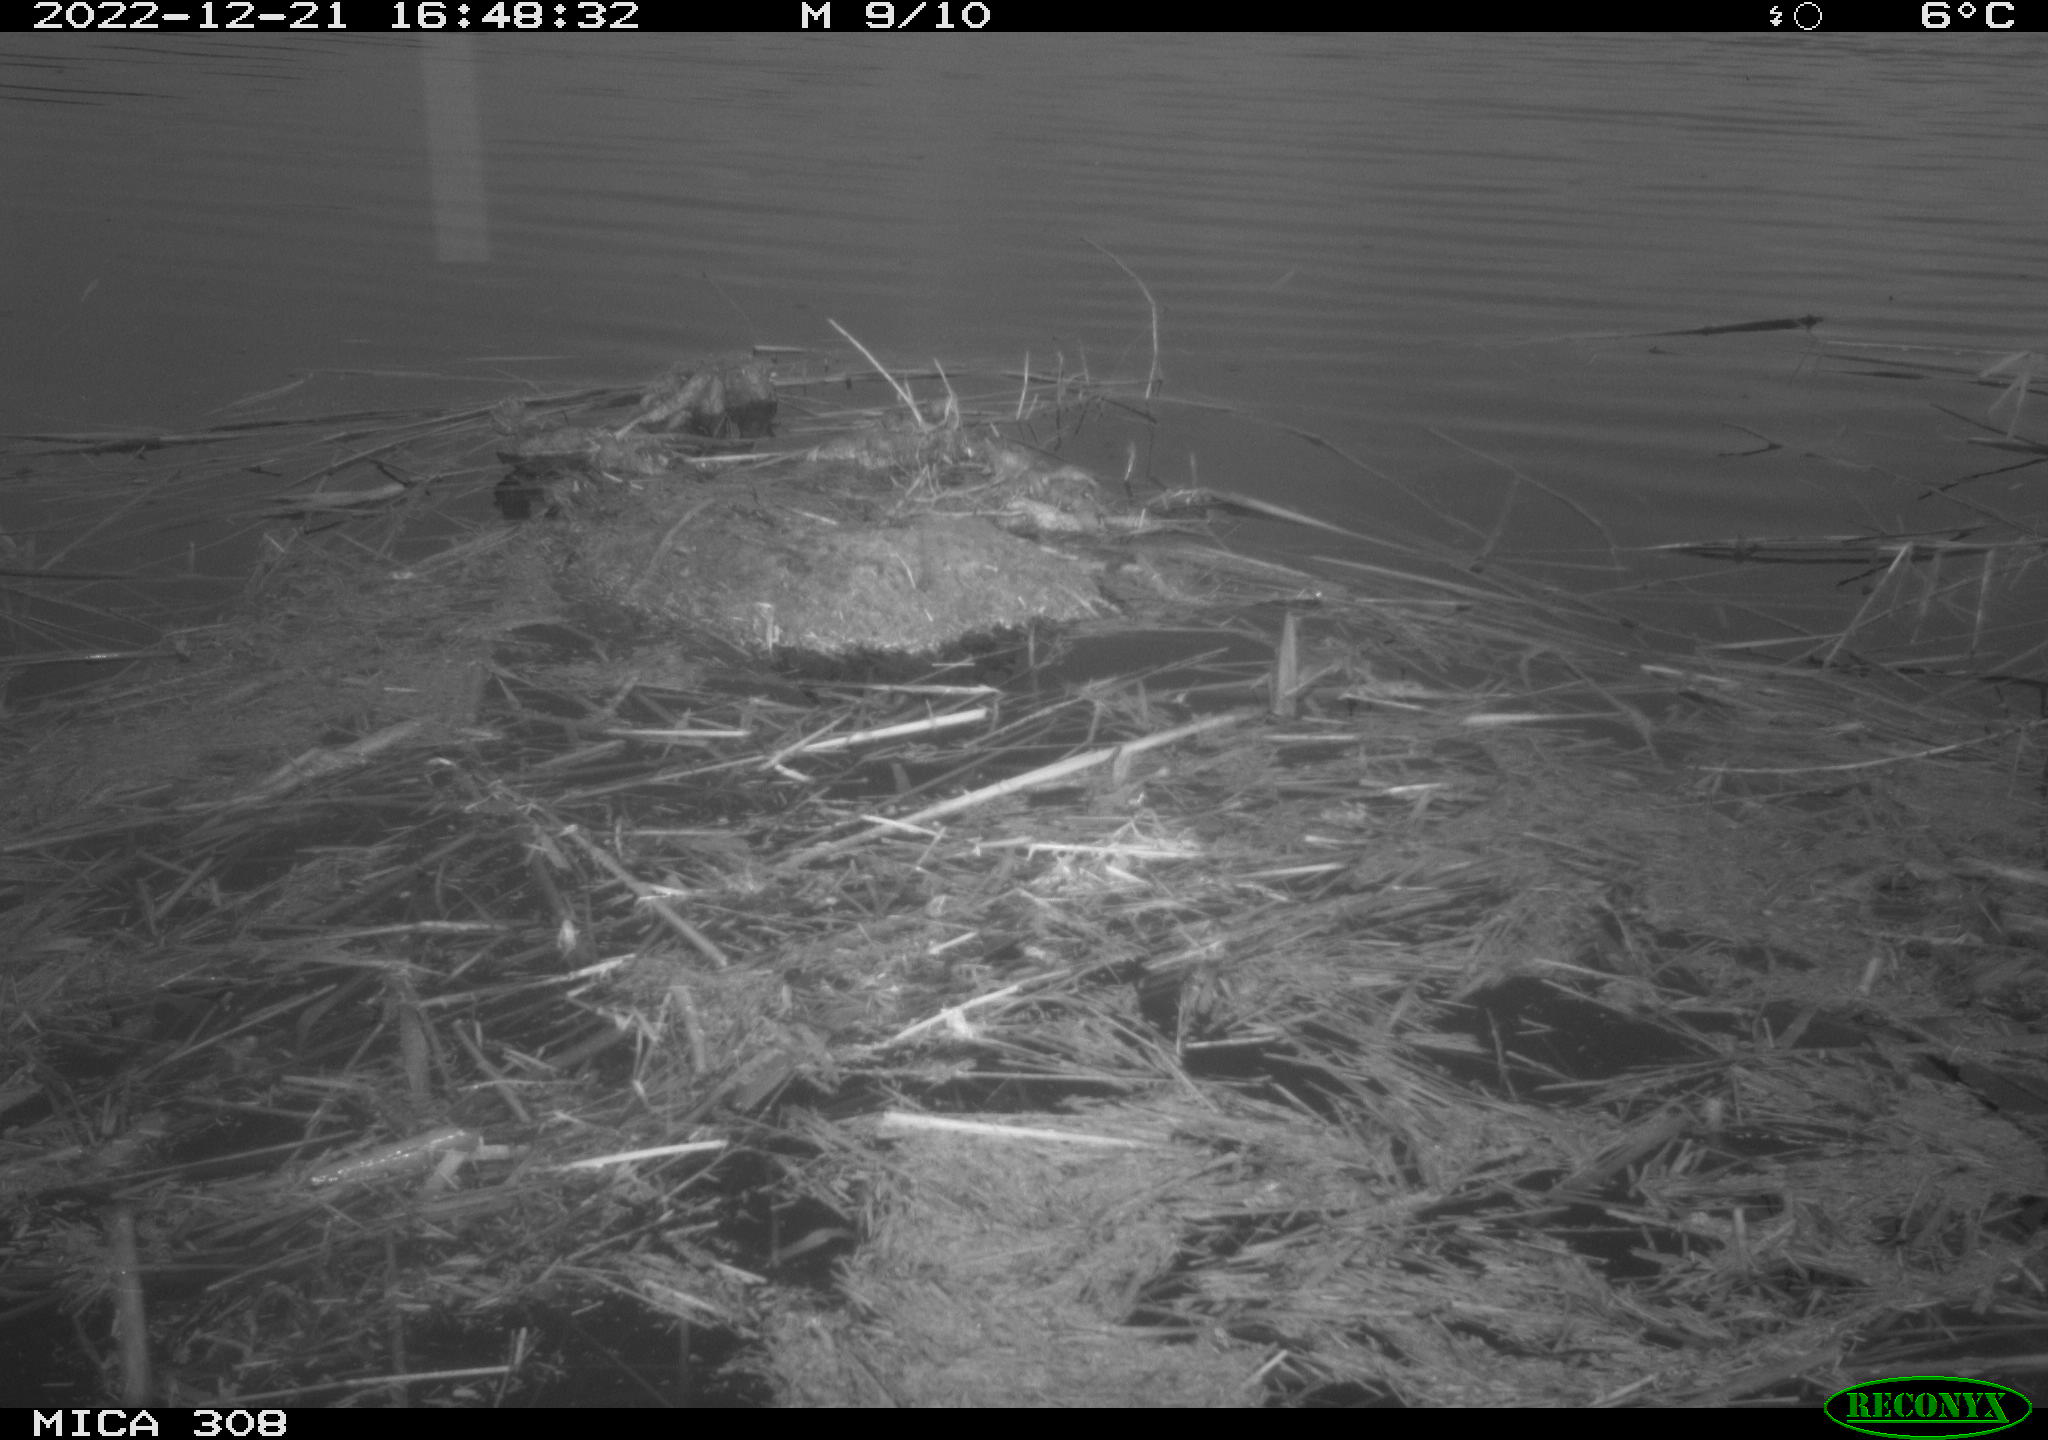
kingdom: Animalia
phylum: Chordata
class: Aves
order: Gruiformes
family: Rallidae
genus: Gallinula
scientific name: Gallinula chloropus
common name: Common moorhen
